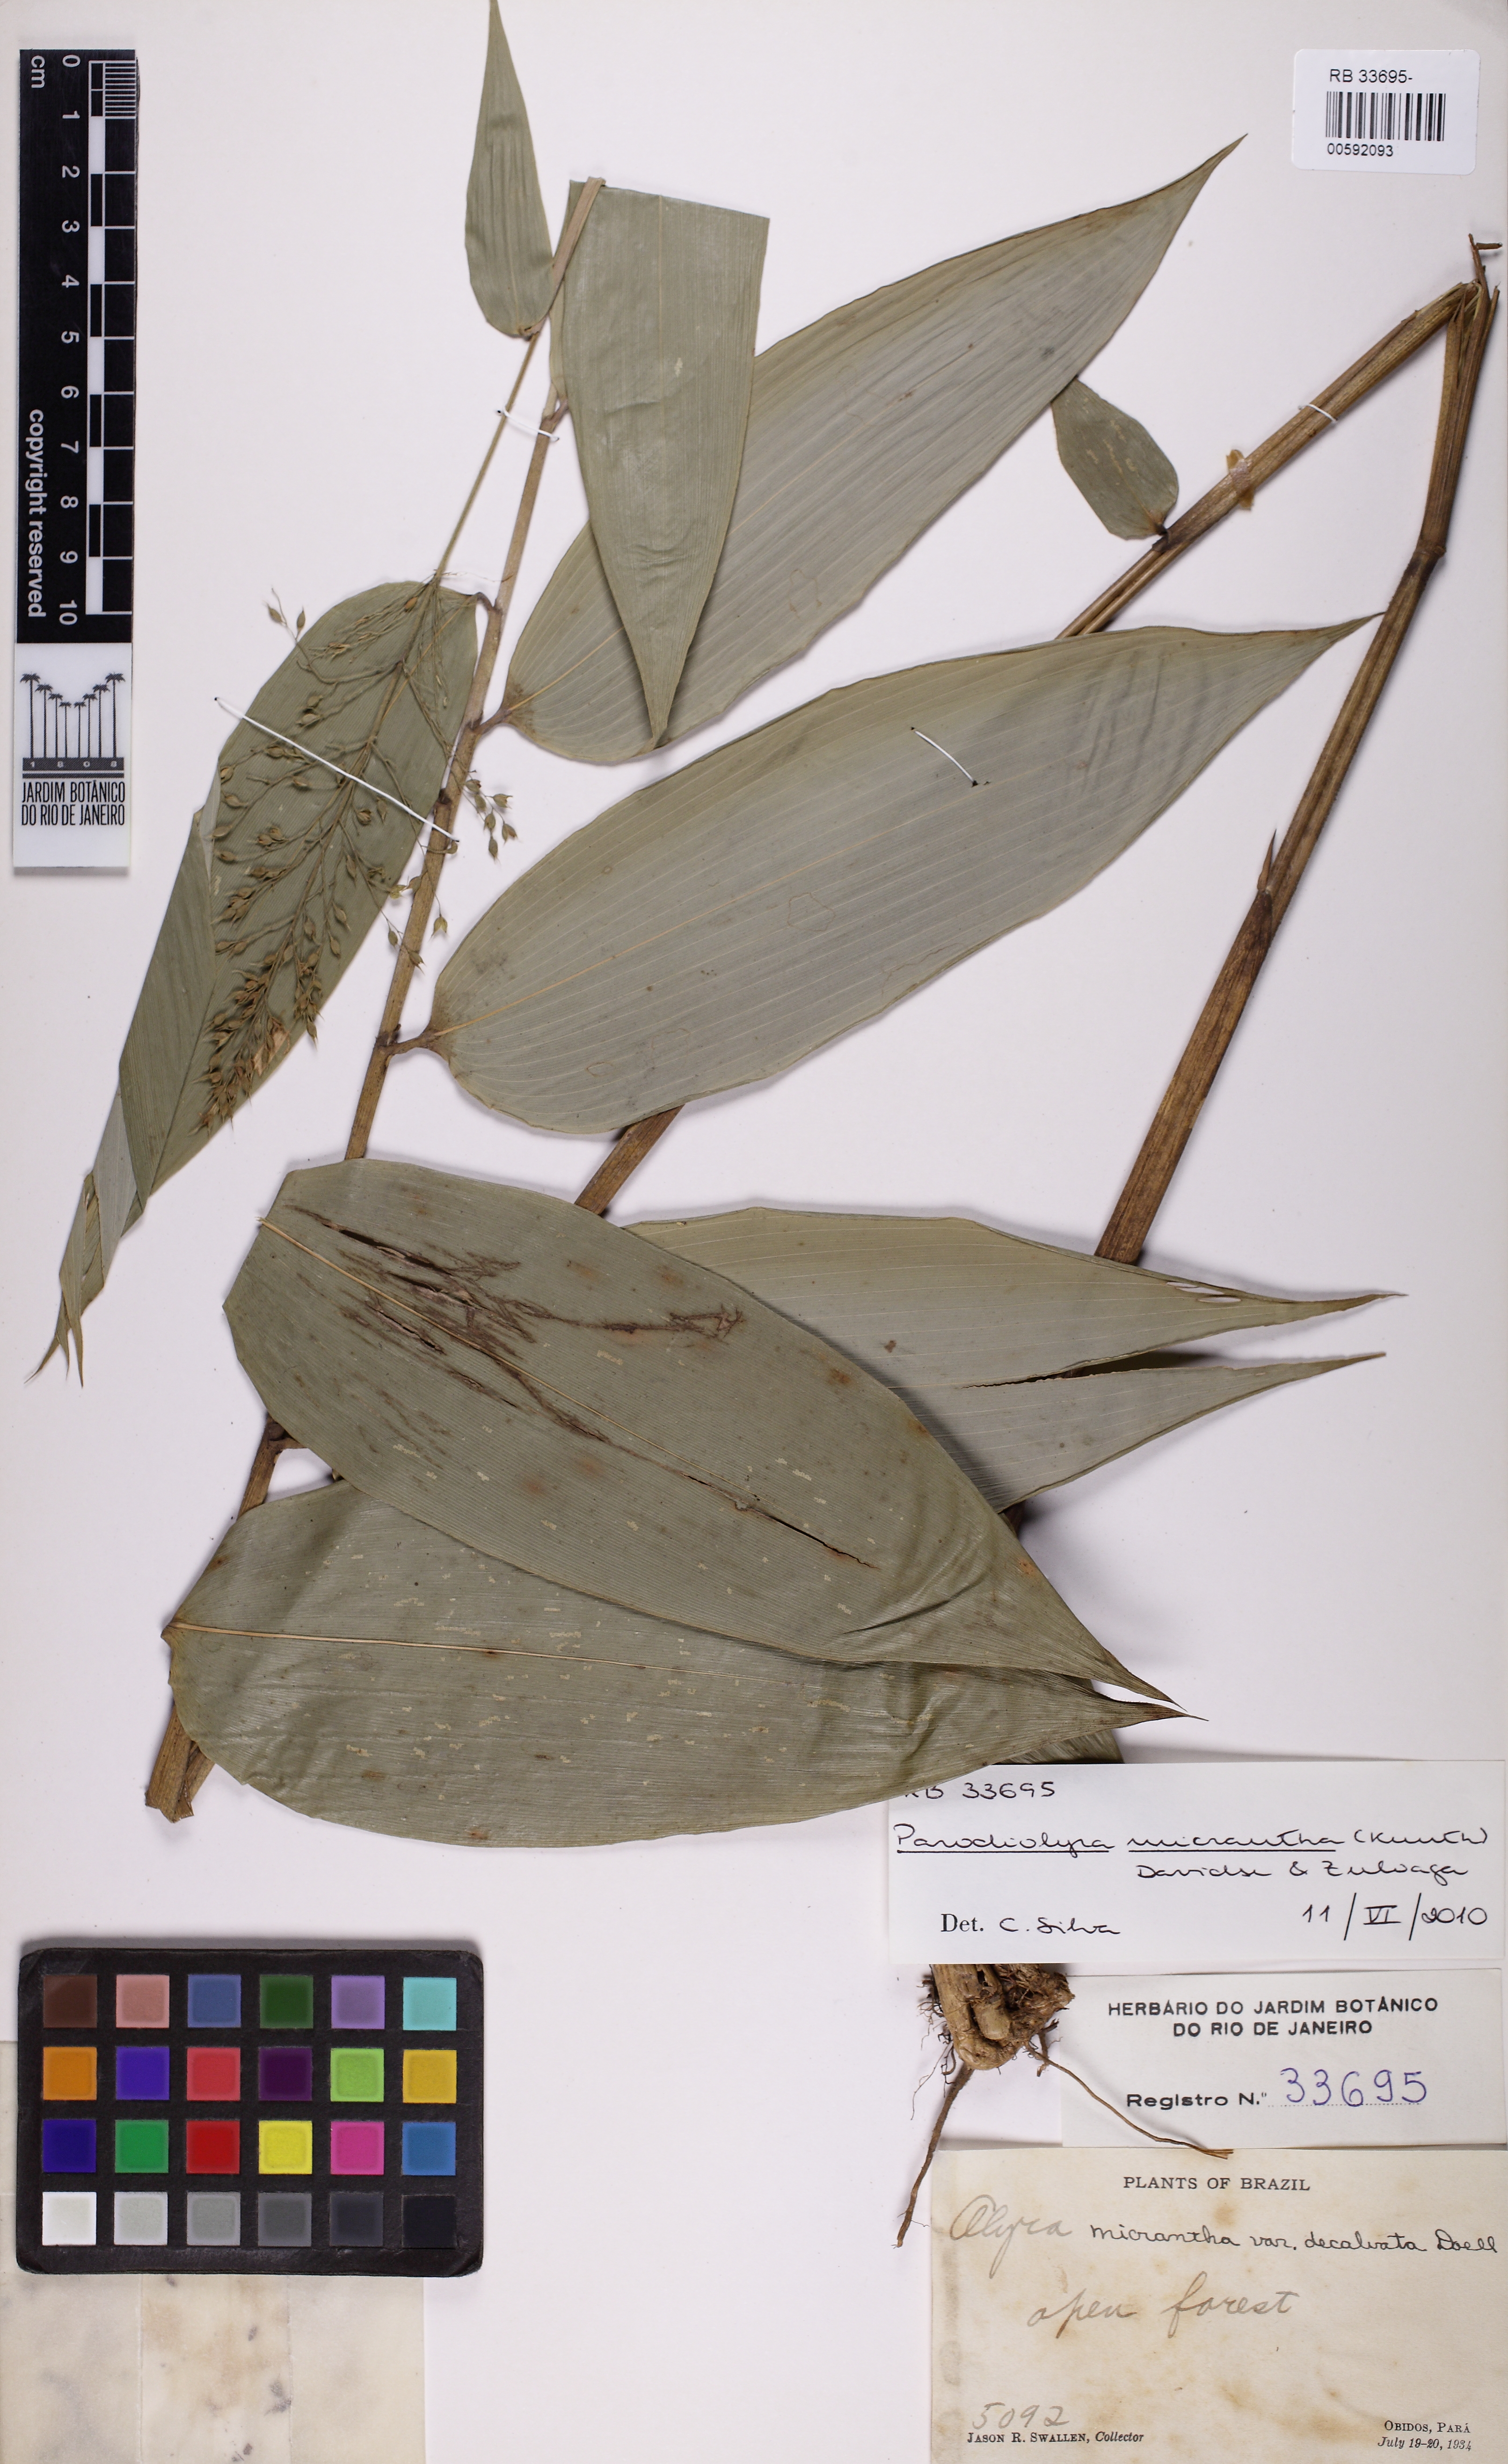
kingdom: Plantae
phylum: Tracheophyta
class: Liliopsida
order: Poales
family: Poaceae
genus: Taquara
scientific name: Taquara micrantha
